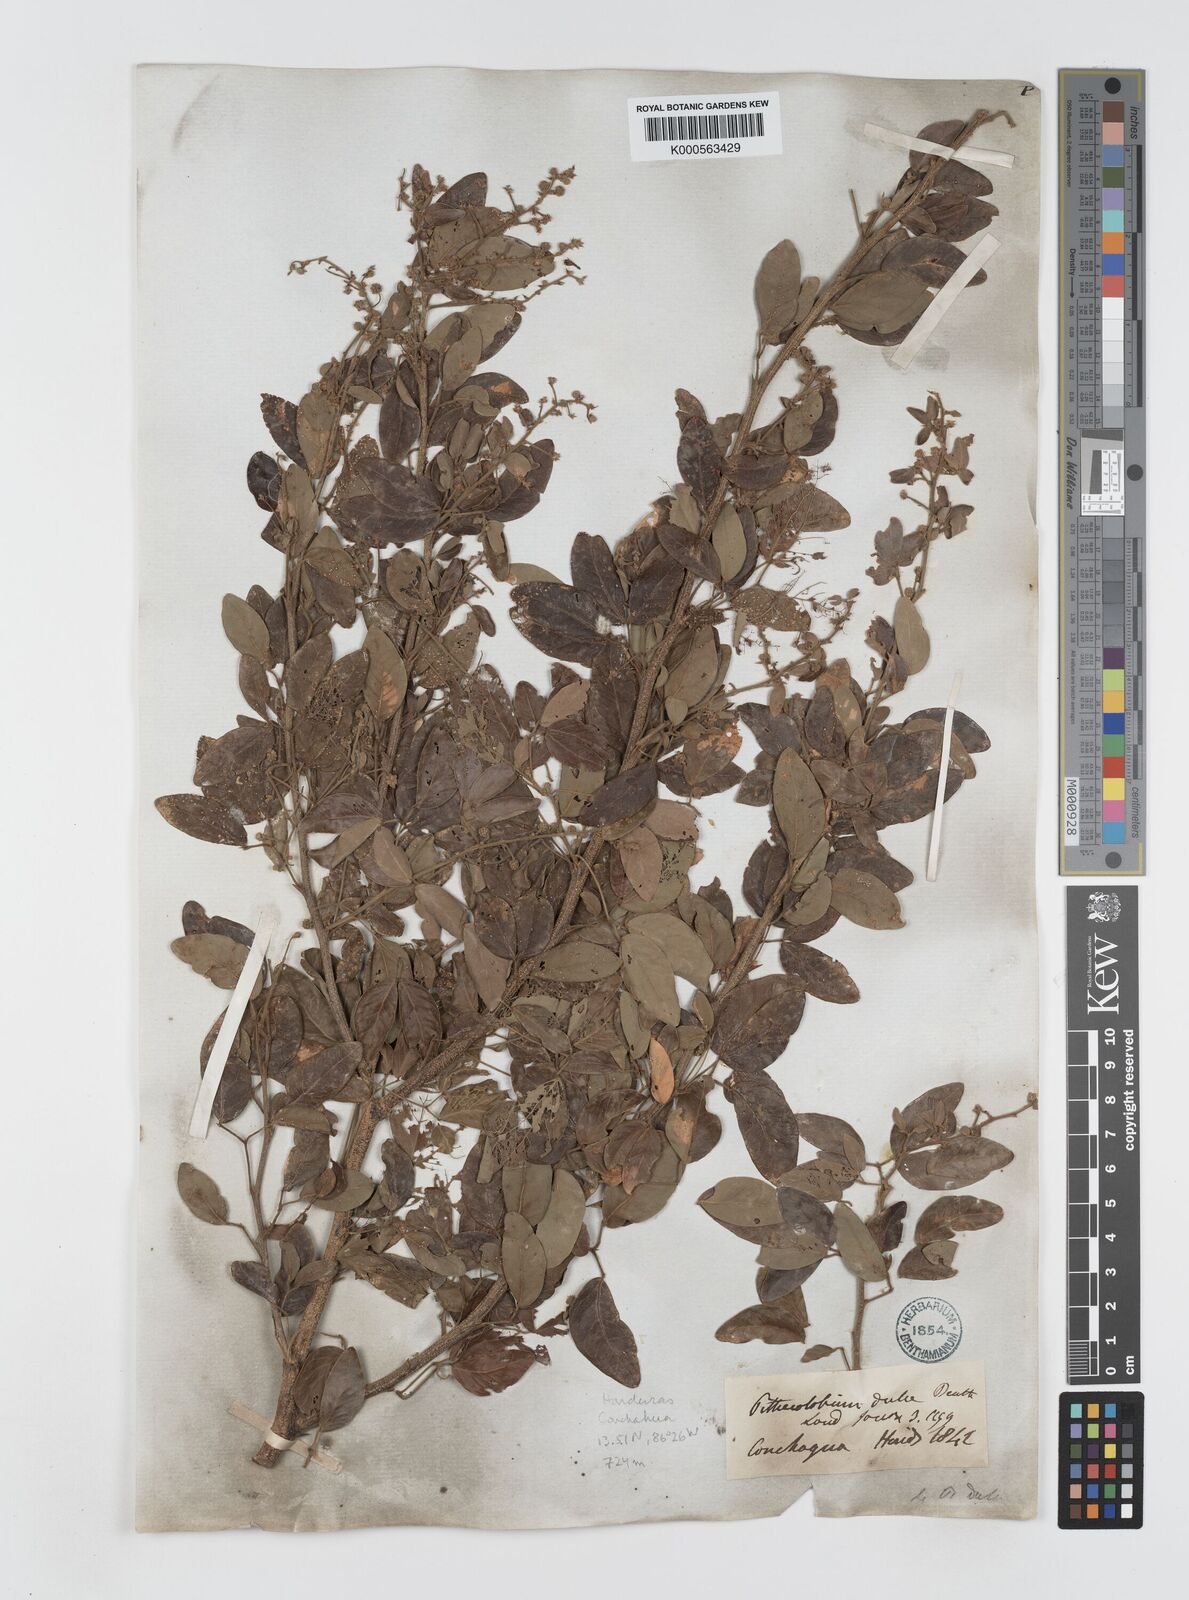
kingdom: Plantae
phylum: Tracheophyta
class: Magnoliopsida
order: Fabales
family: Fabaceae
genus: Pithecellobium
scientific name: Pithecellobium dulce
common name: Monkeypod
